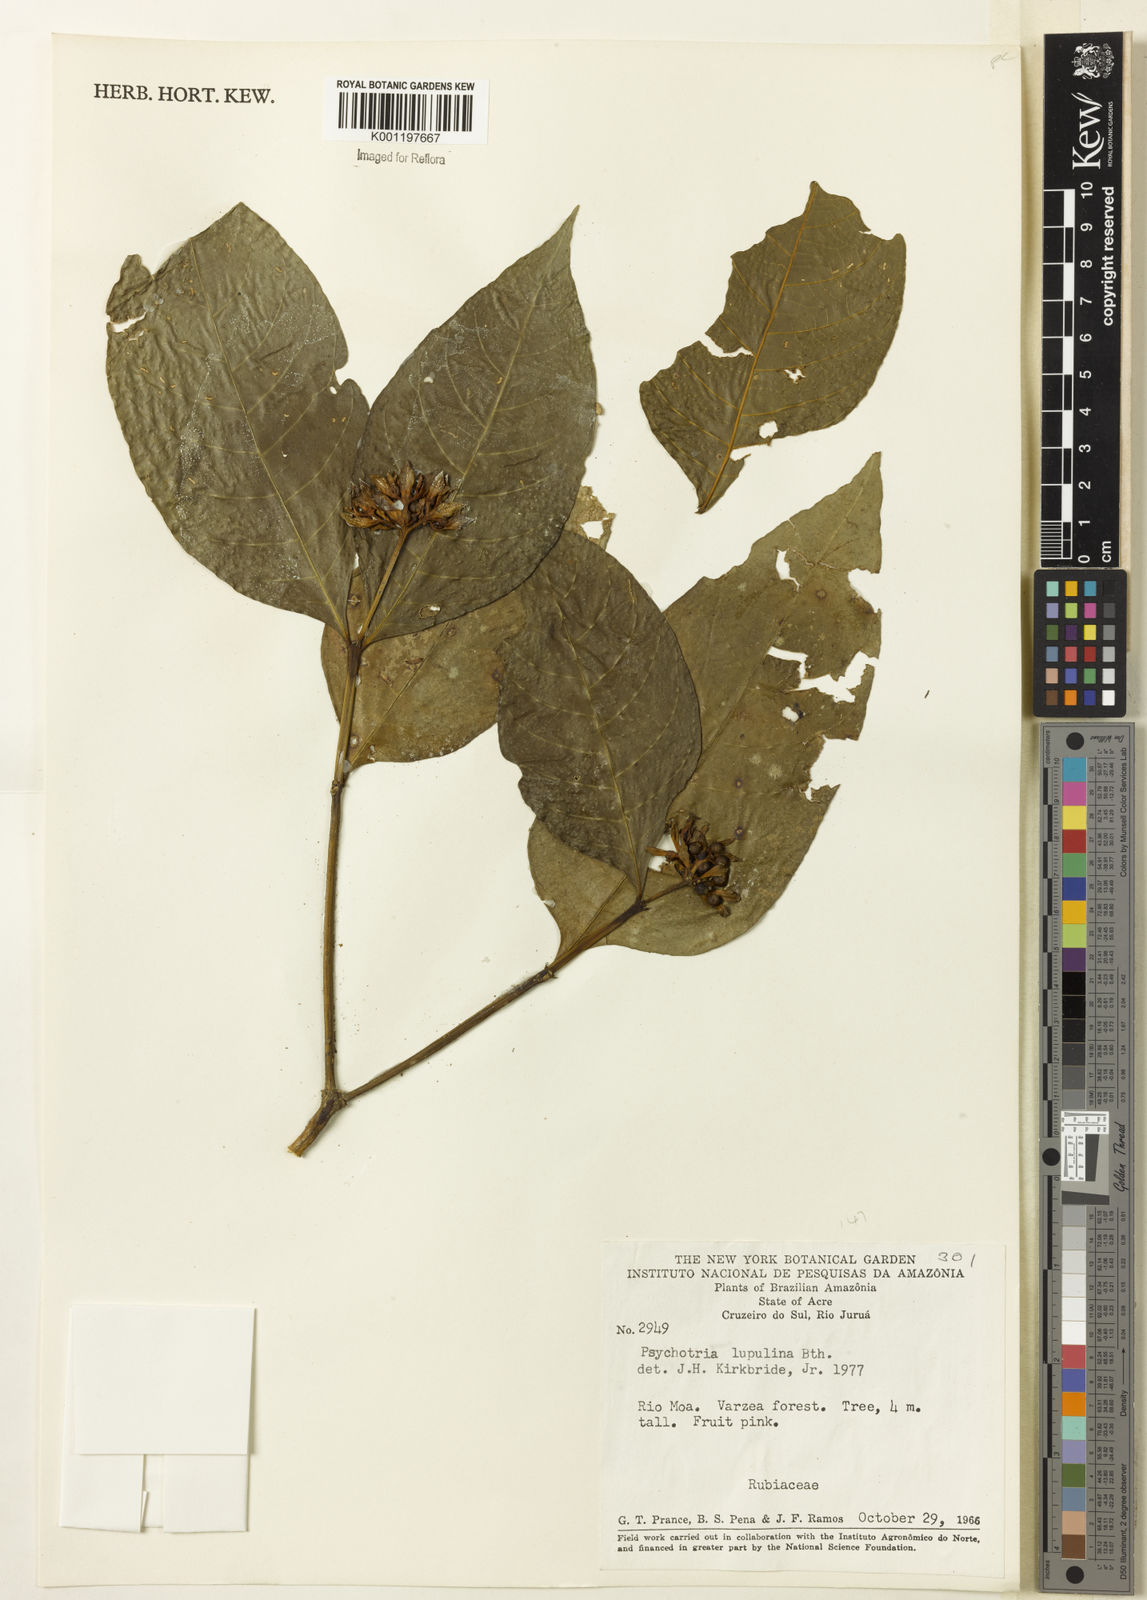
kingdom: Plantae
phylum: Tracheophyta
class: Magnoliopsida
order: Gentianales
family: Rubiaceae
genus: Palicourea
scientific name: Palicourea justiciifolia
